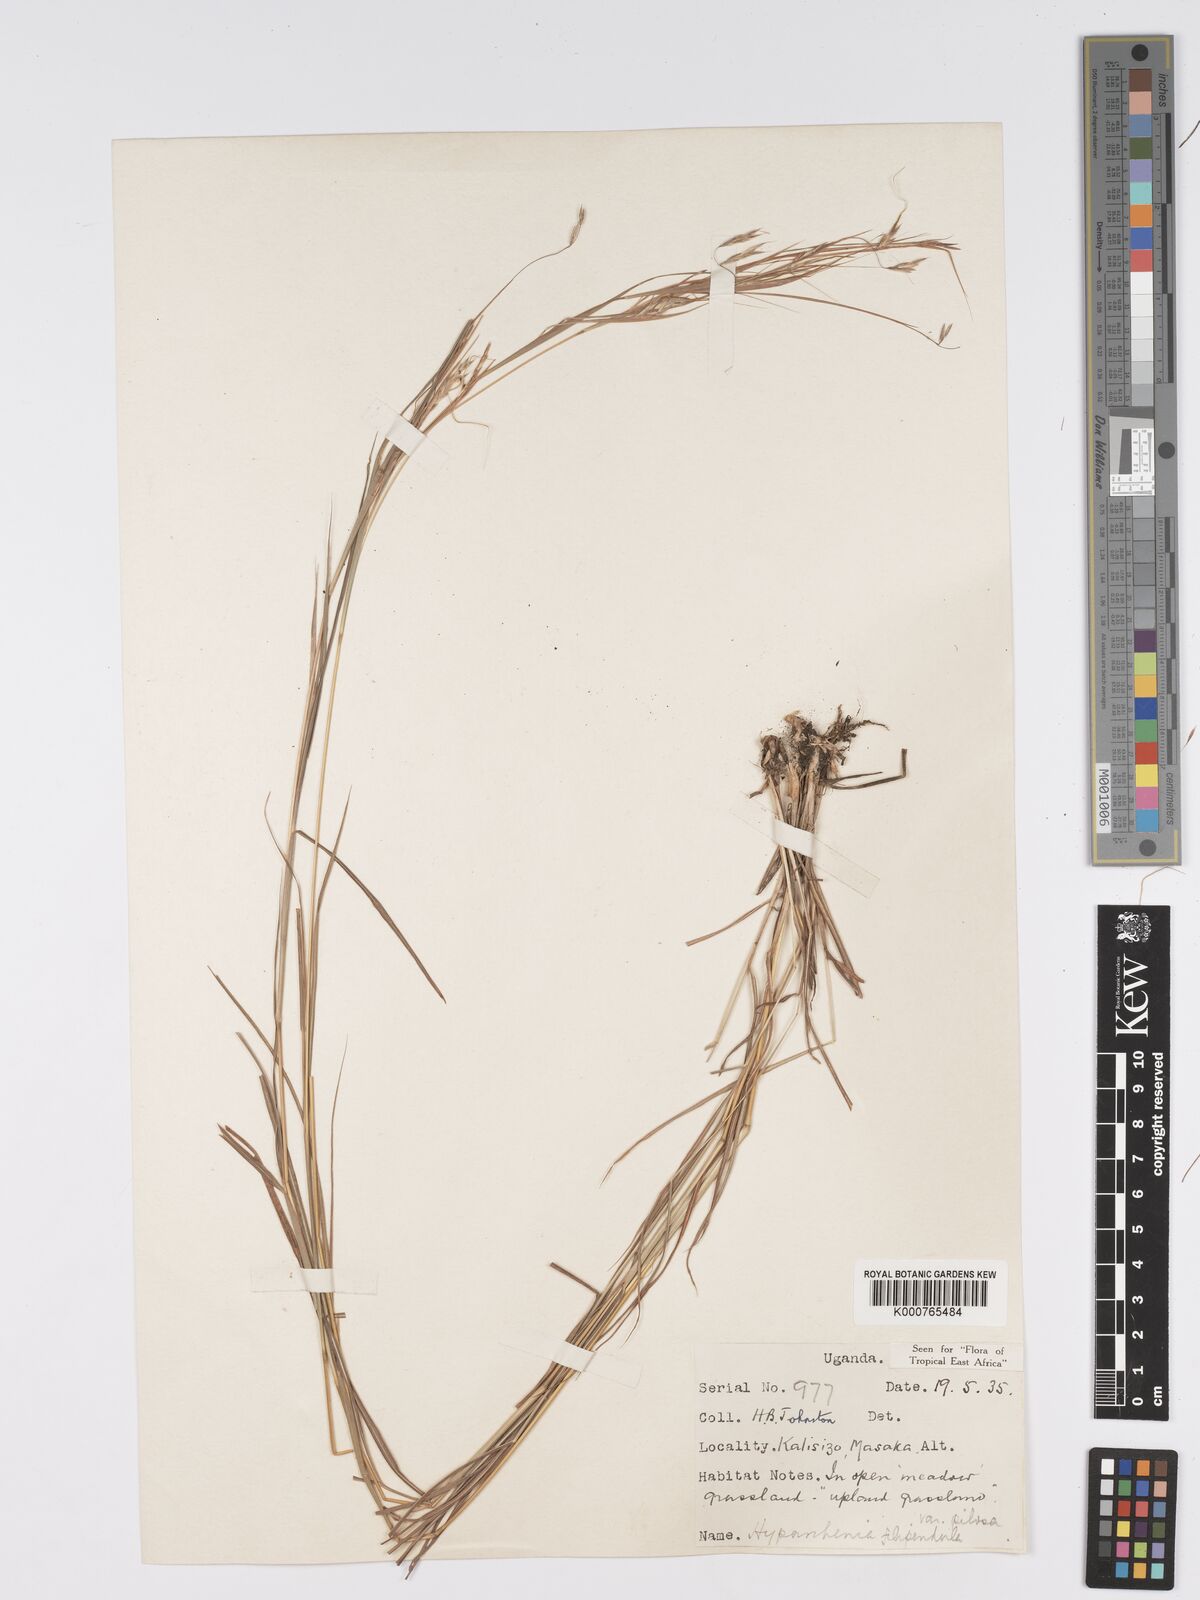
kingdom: Plantae
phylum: Tracheophyta
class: Liliopsida
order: Poales
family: Poaceae
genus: Hyparrhenia
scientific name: Hyparrhenia filipendula
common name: Tambookie grass
